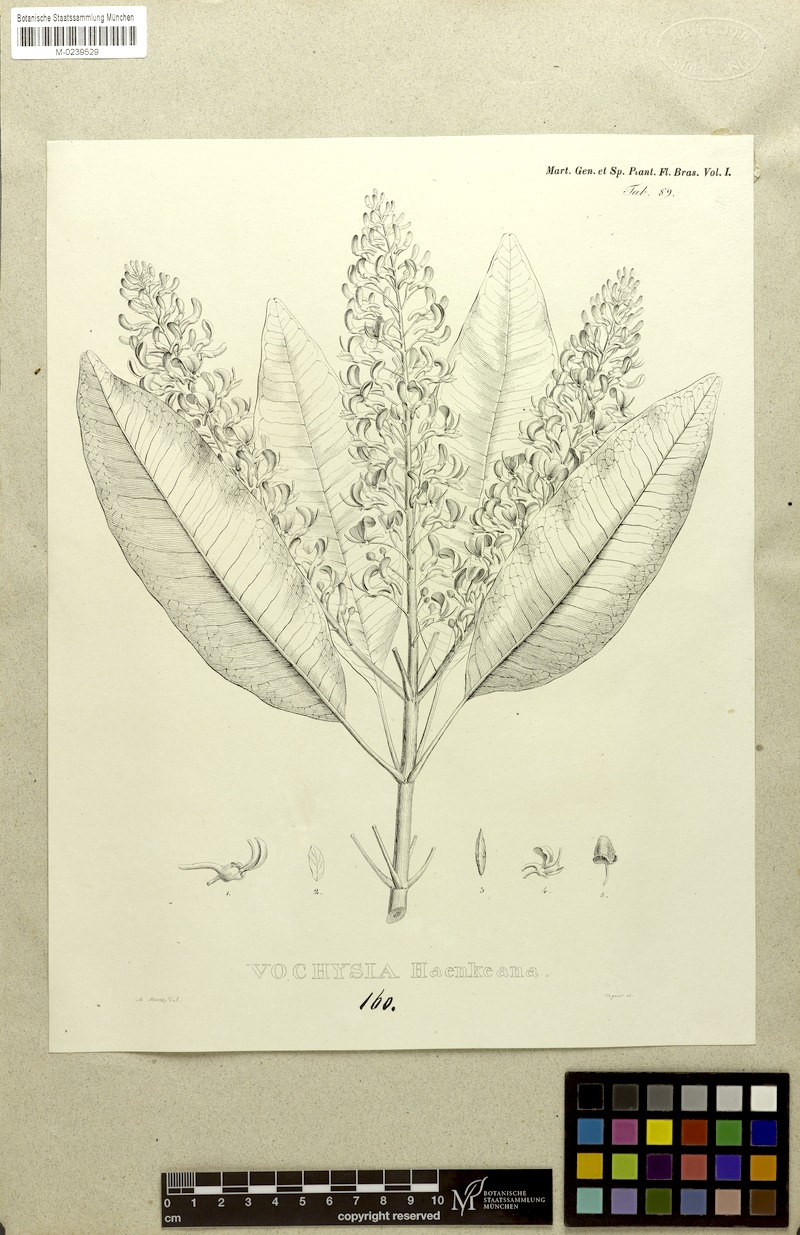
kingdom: Plantae
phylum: Tracheophyta
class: Magnoliopsida
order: Myrtales
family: Vochysiaceae
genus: Vochysia
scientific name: Vochysia haenkeana
